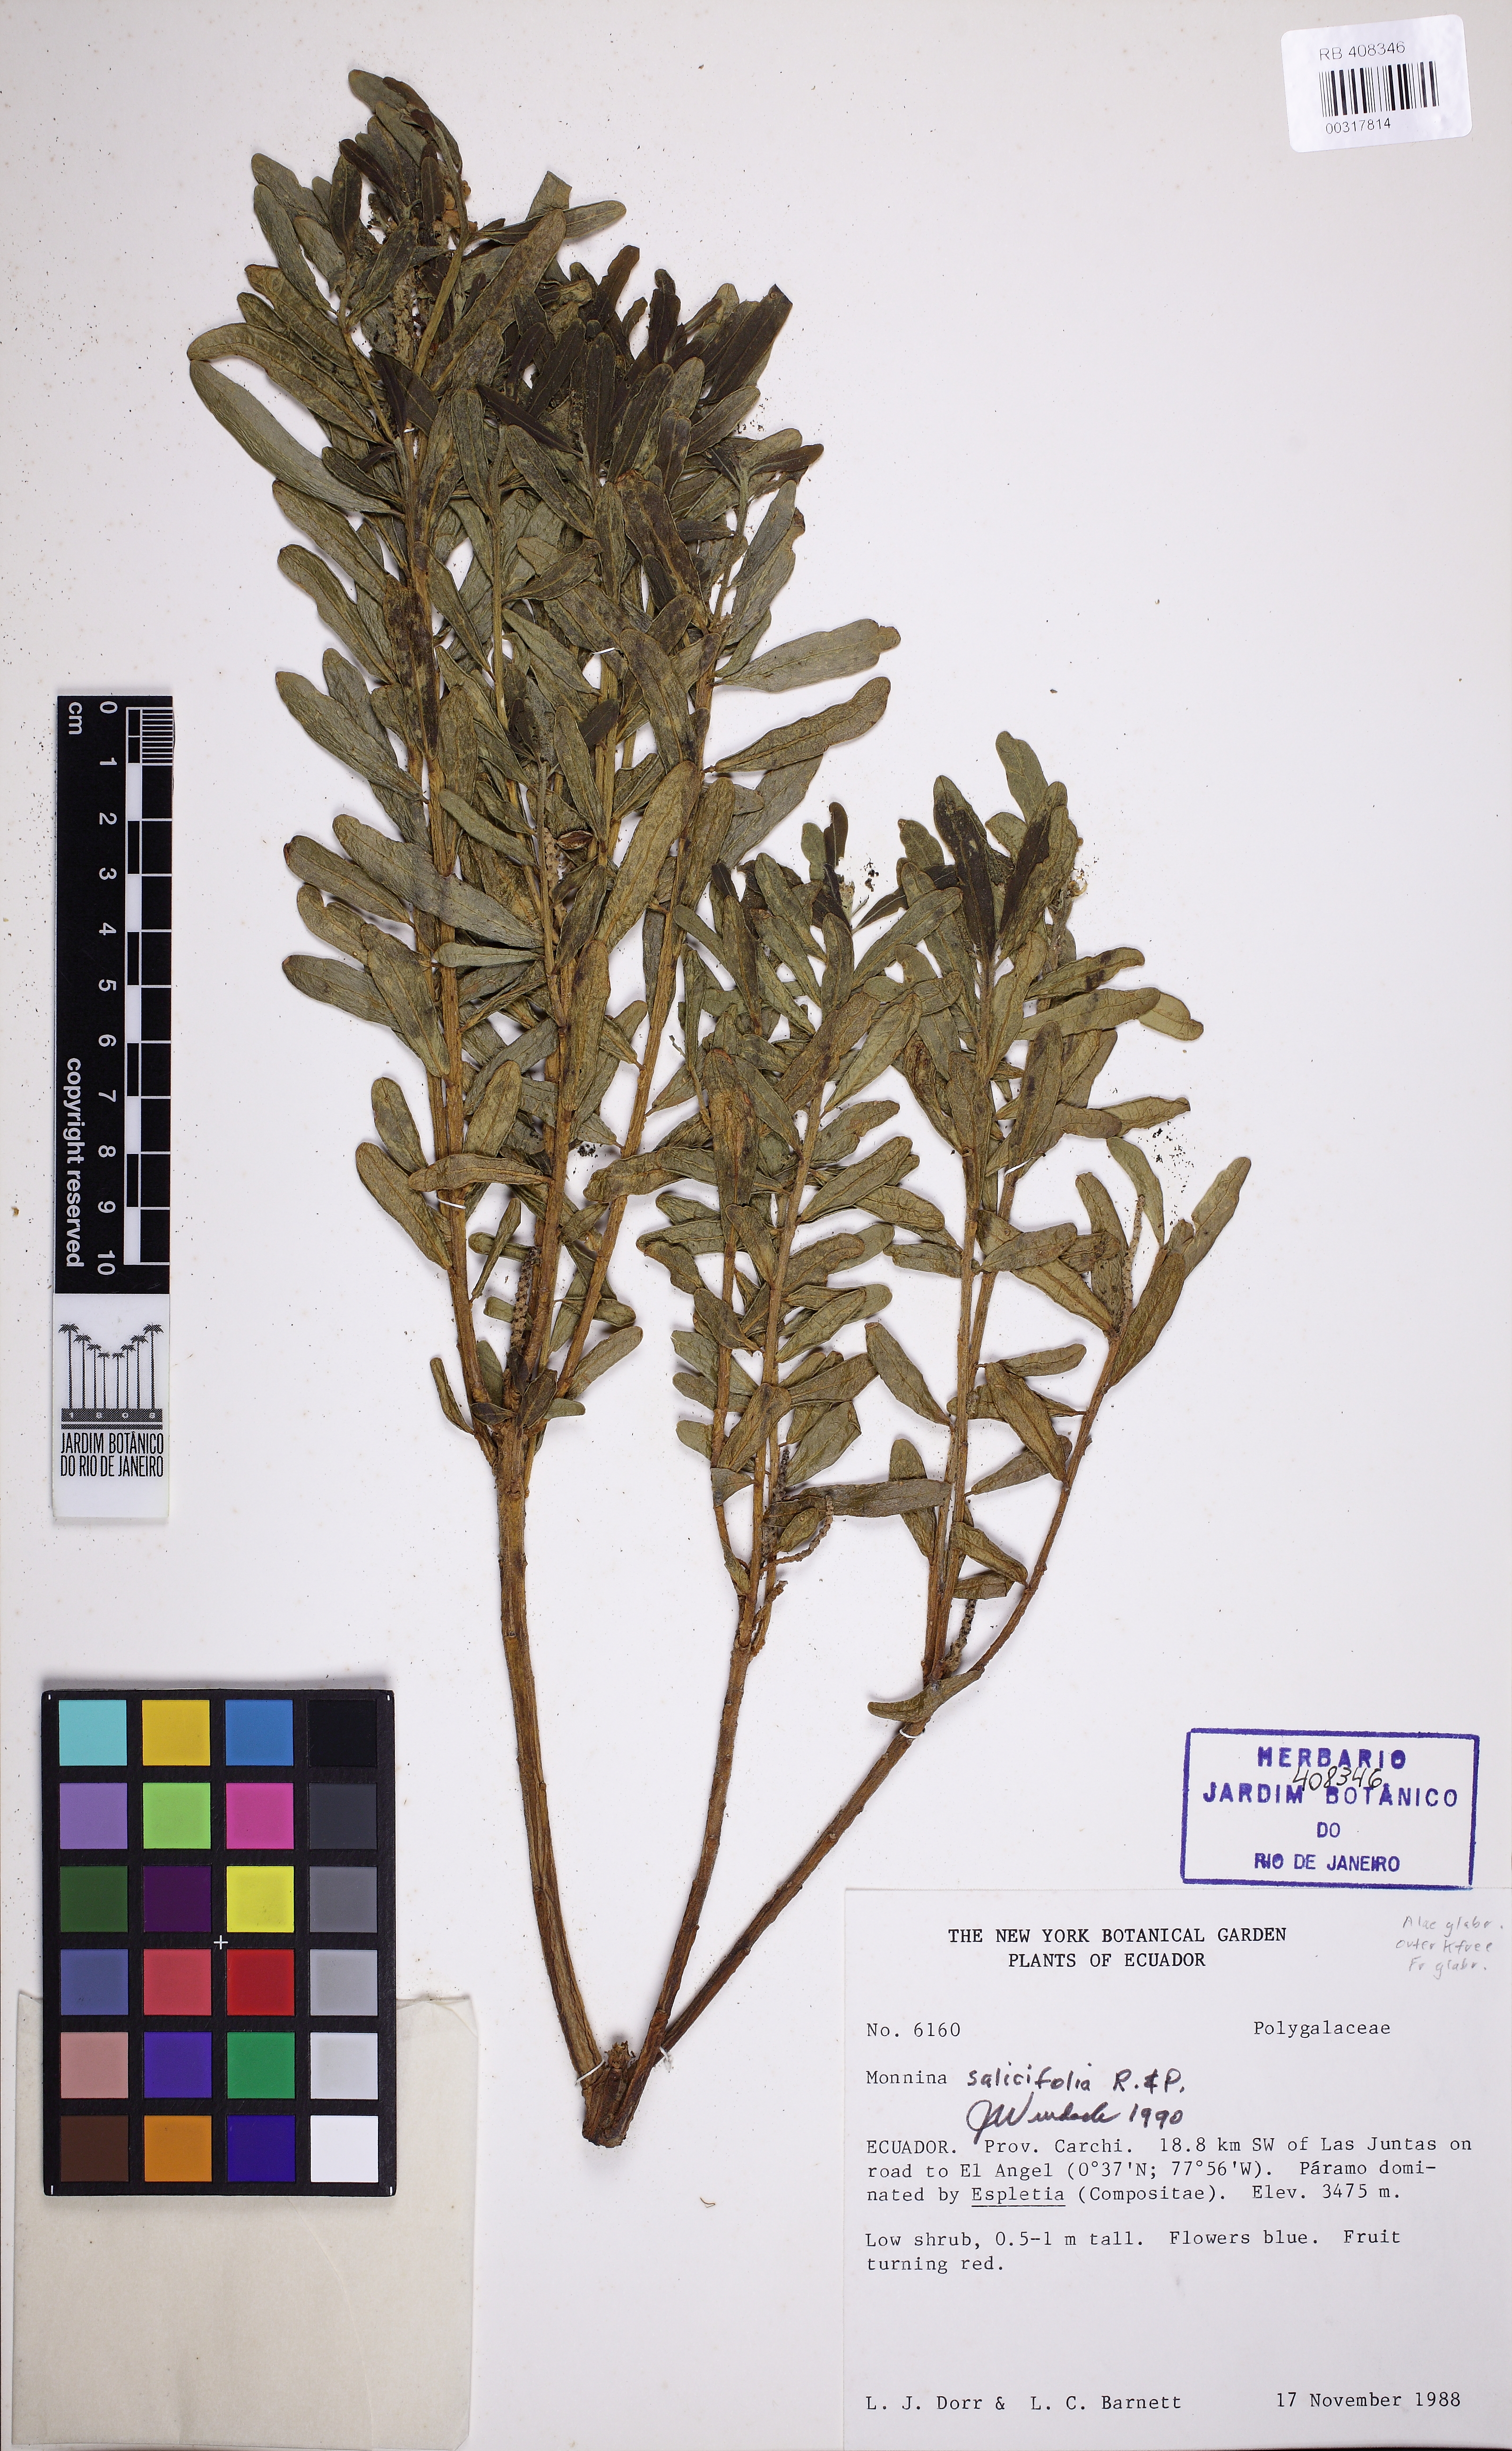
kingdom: Plantae
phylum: Tracheophyta
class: Magnoliopsida
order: Fabales
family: Polygalaceae
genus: Monnina
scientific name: Monnina salicifolia
